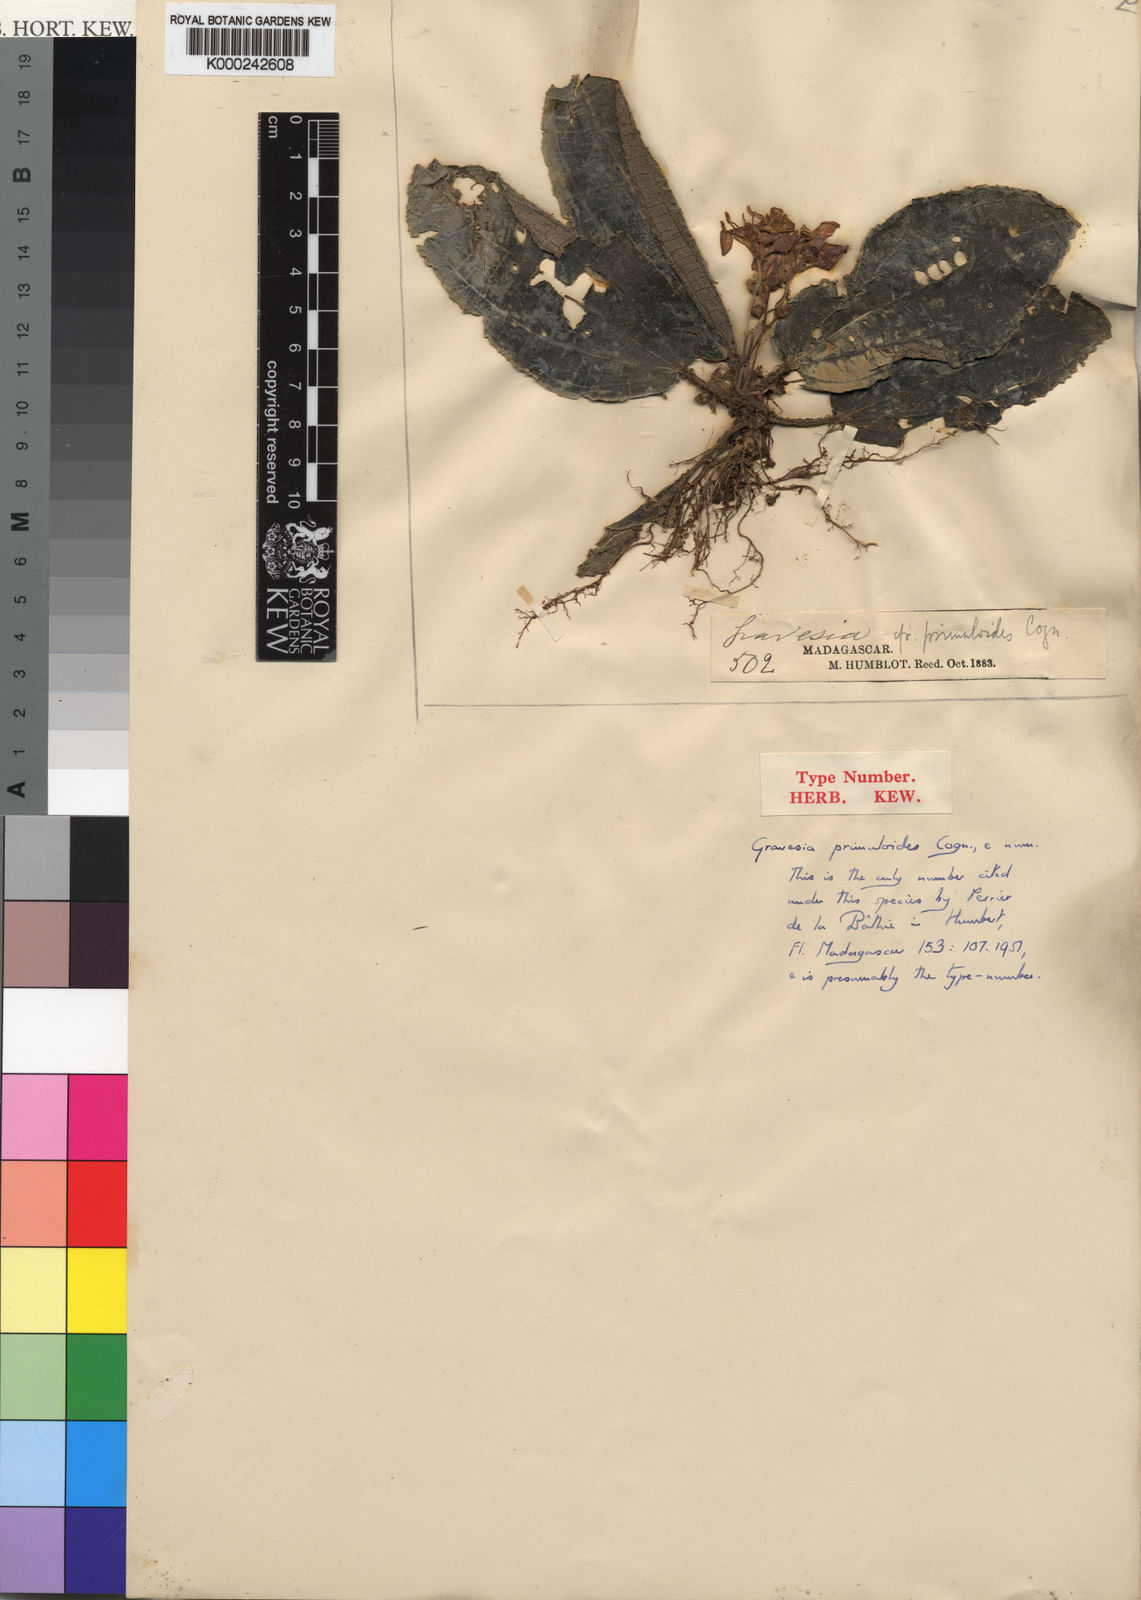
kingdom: Plantae
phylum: Tracheophyta
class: Magnoliopsida
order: Myrtales
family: Melastomataceae
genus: Gravesia
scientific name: Gravesia primuloides
